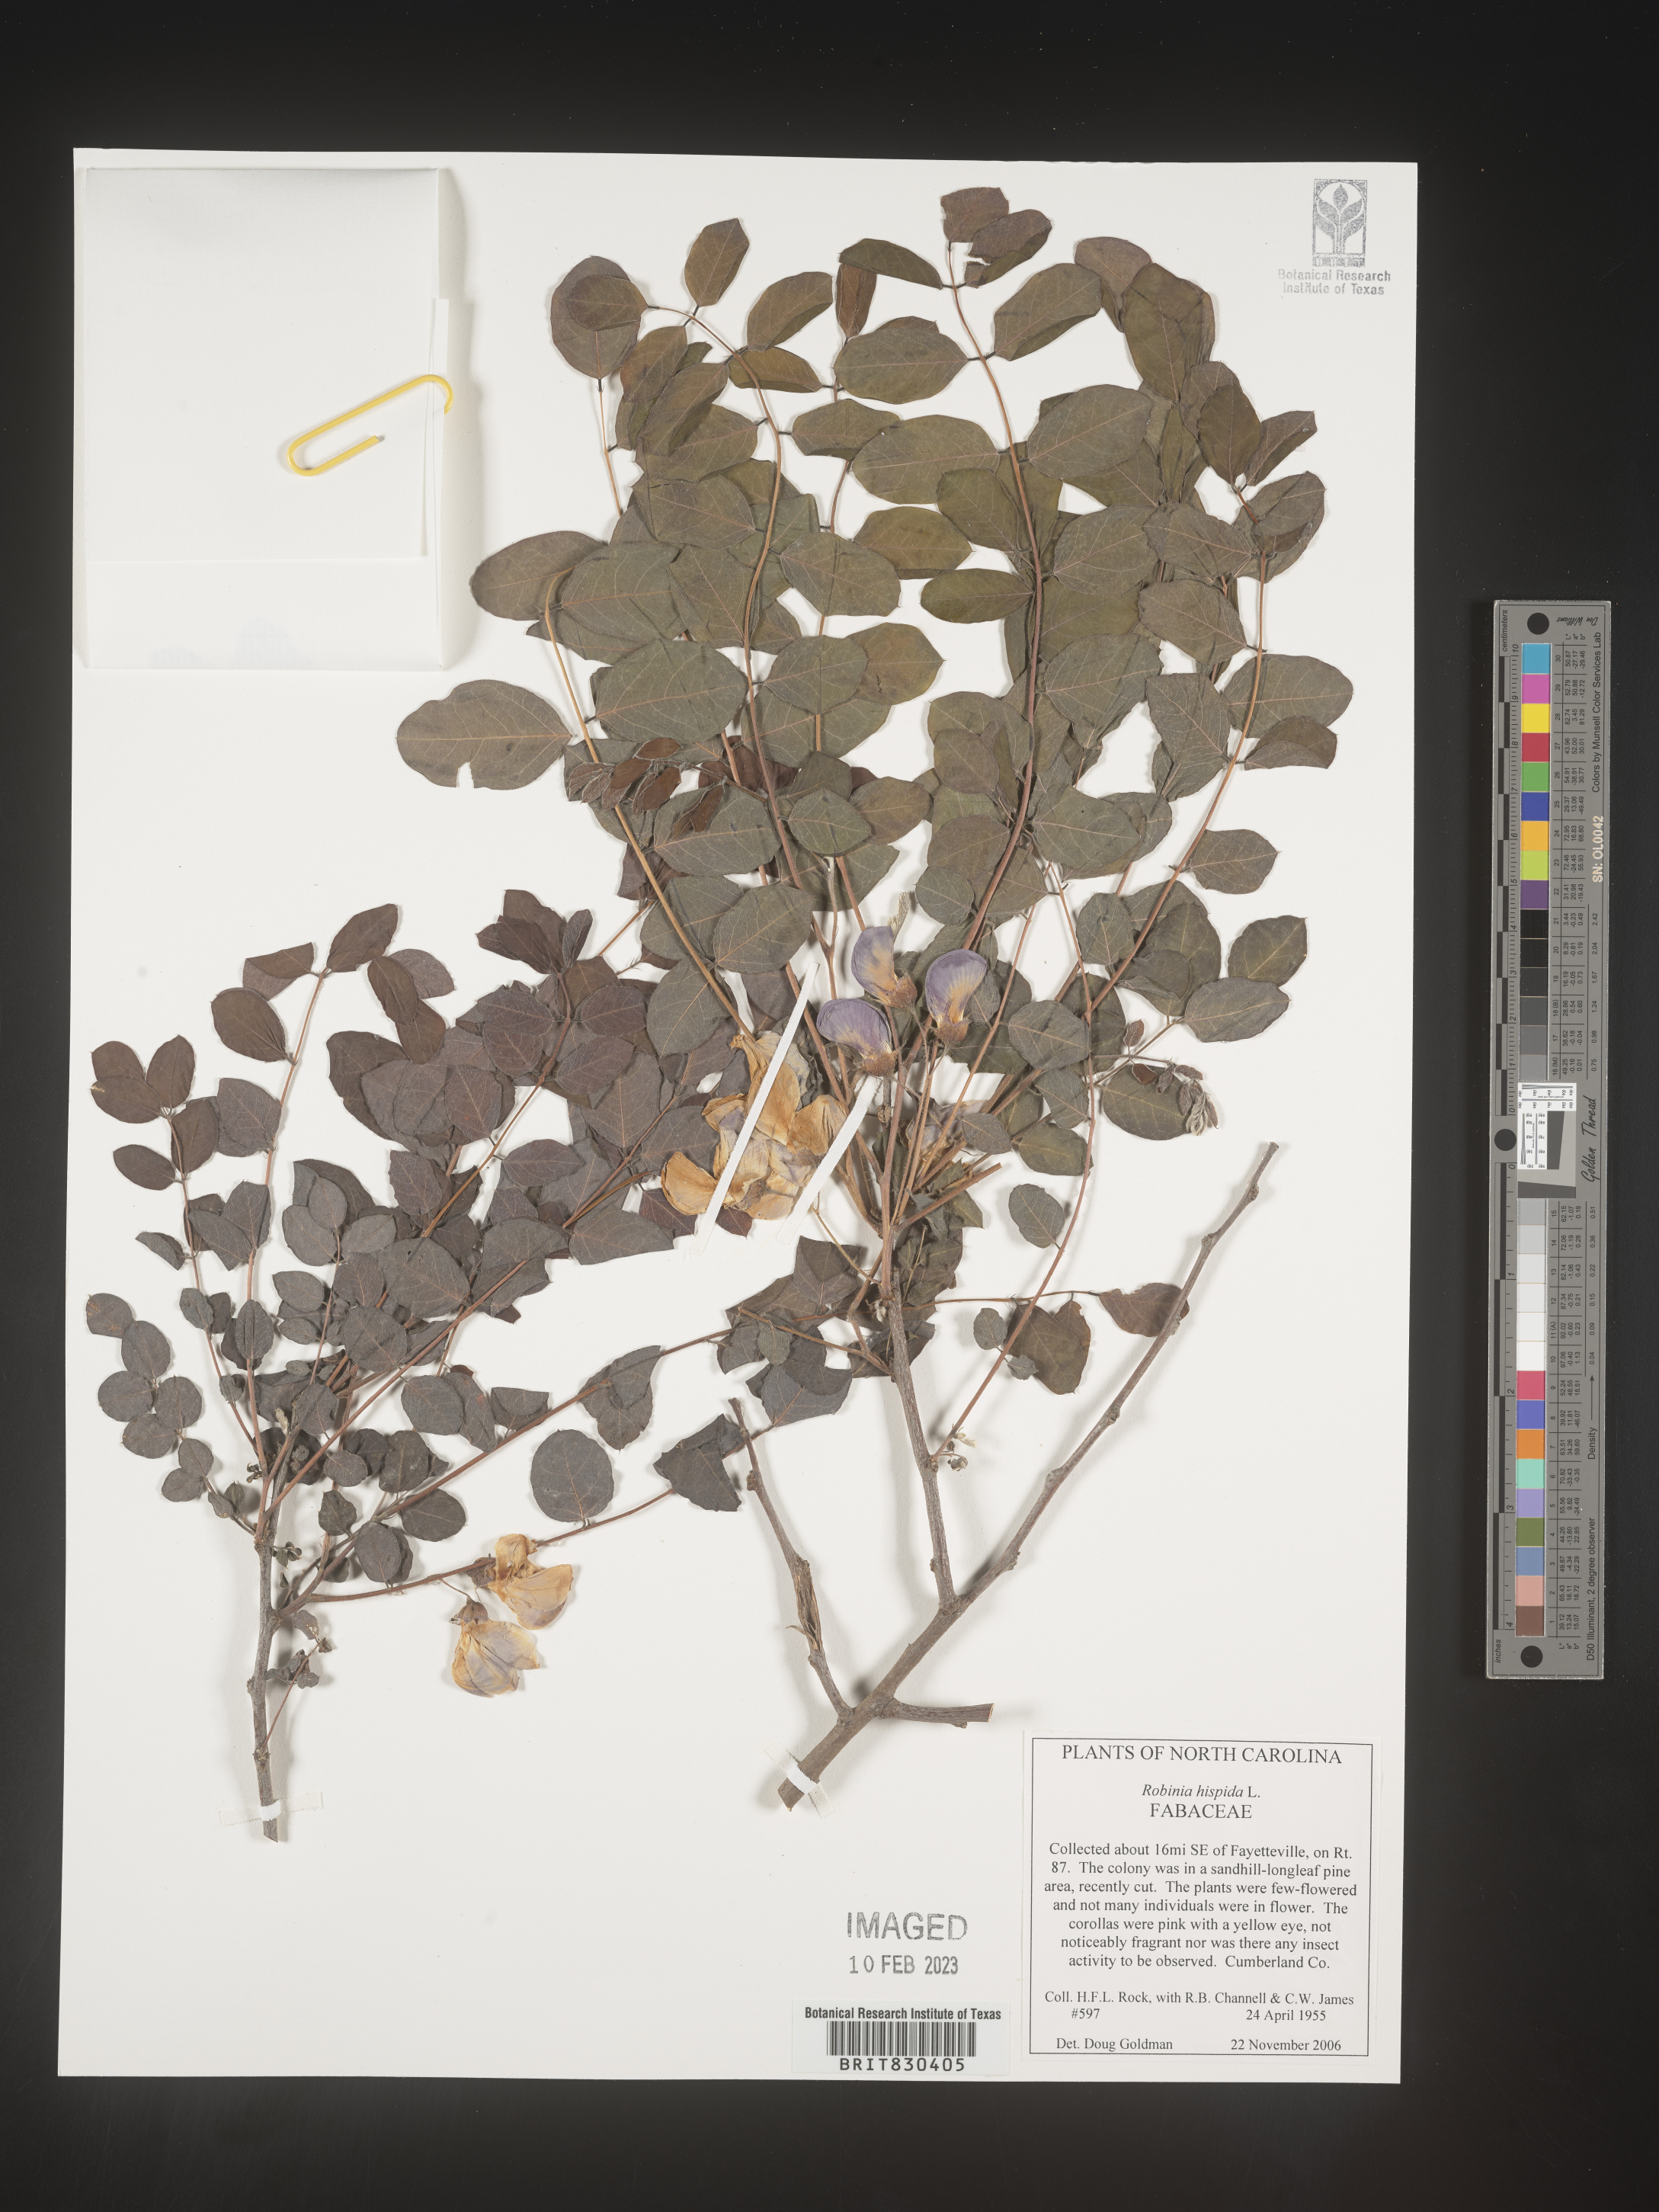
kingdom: Plantae
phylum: Tracheophyta
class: Magnoliopsida
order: Fabales
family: Fabaceae
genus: Robinia
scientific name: Robinia hispida
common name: Bristly locust
